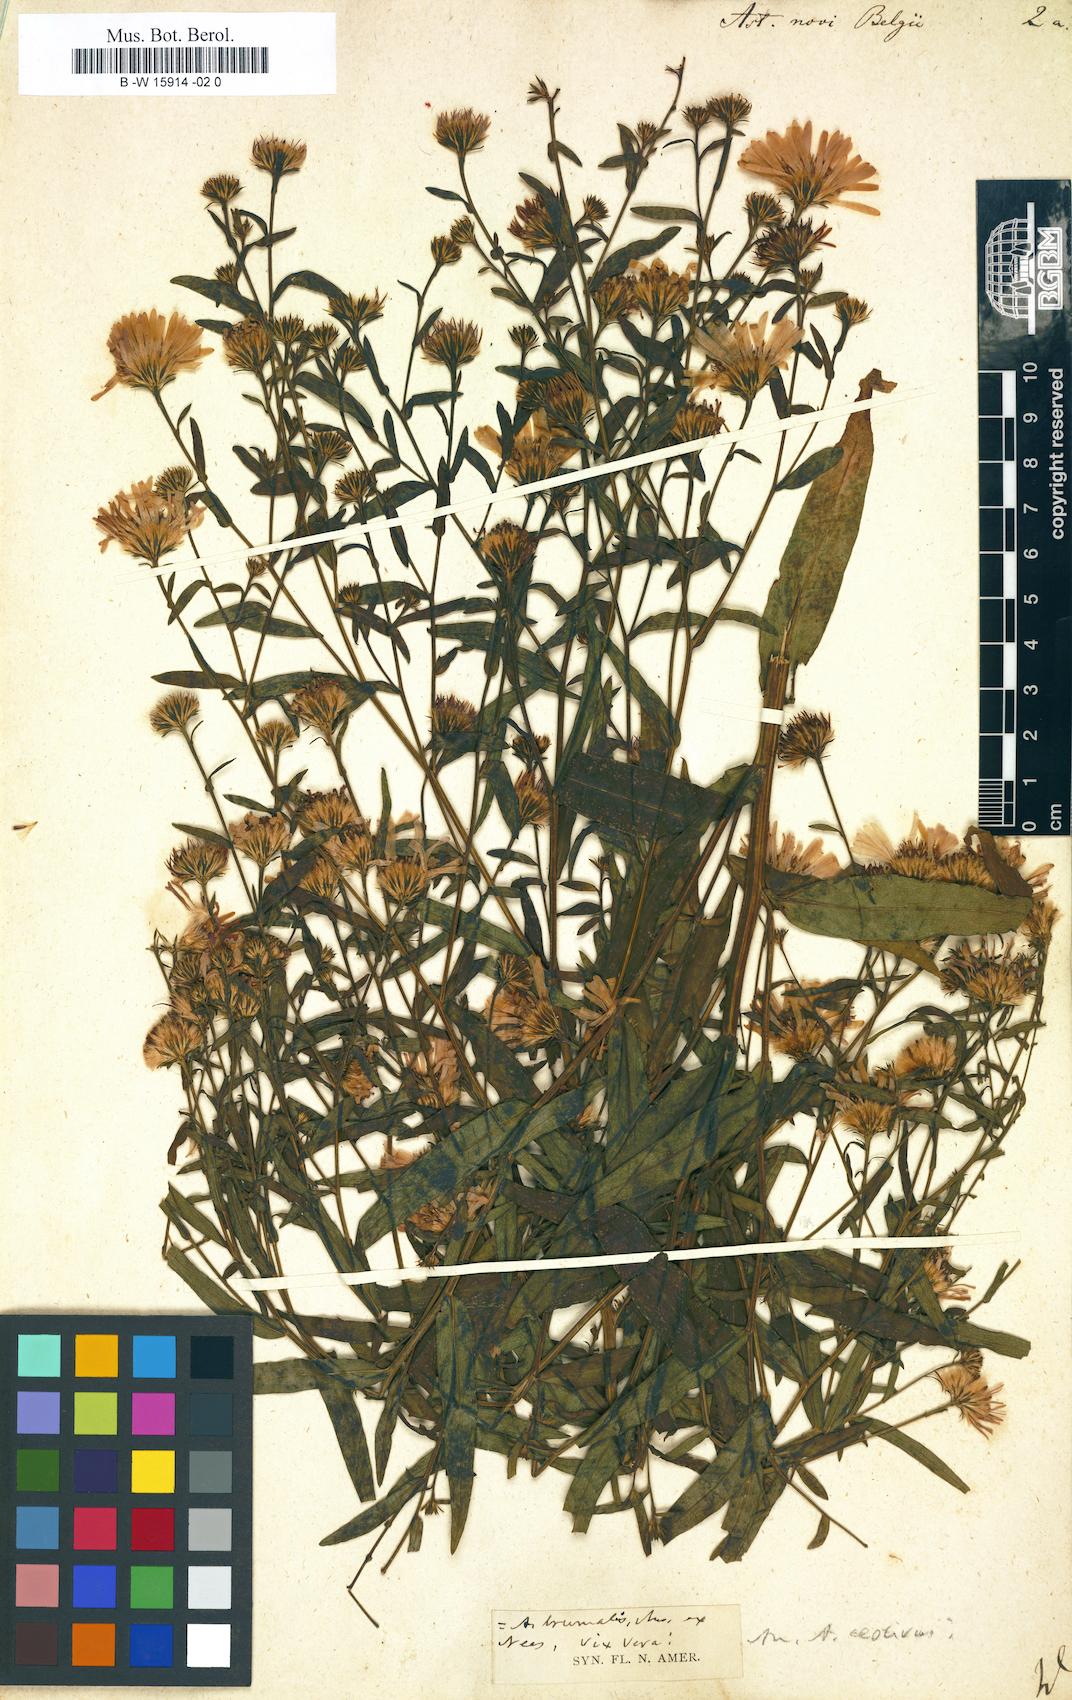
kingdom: Plantae
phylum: Tracheophyta
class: Magnoliopsida
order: Asterales
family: Asteraceae
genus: Symphyotrichum
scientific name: Symphyotrichum novi-belgii
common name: Michaelmas daisy
